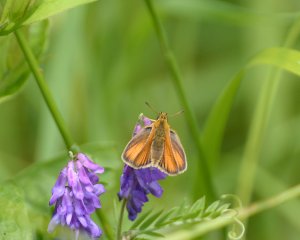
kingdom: Animalia
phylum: Arthropoda
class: Insecta
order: Lepidoptera
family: Hesperiidae
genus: Thymelicus
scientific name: Thymelicus lineola
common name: European Skipper
